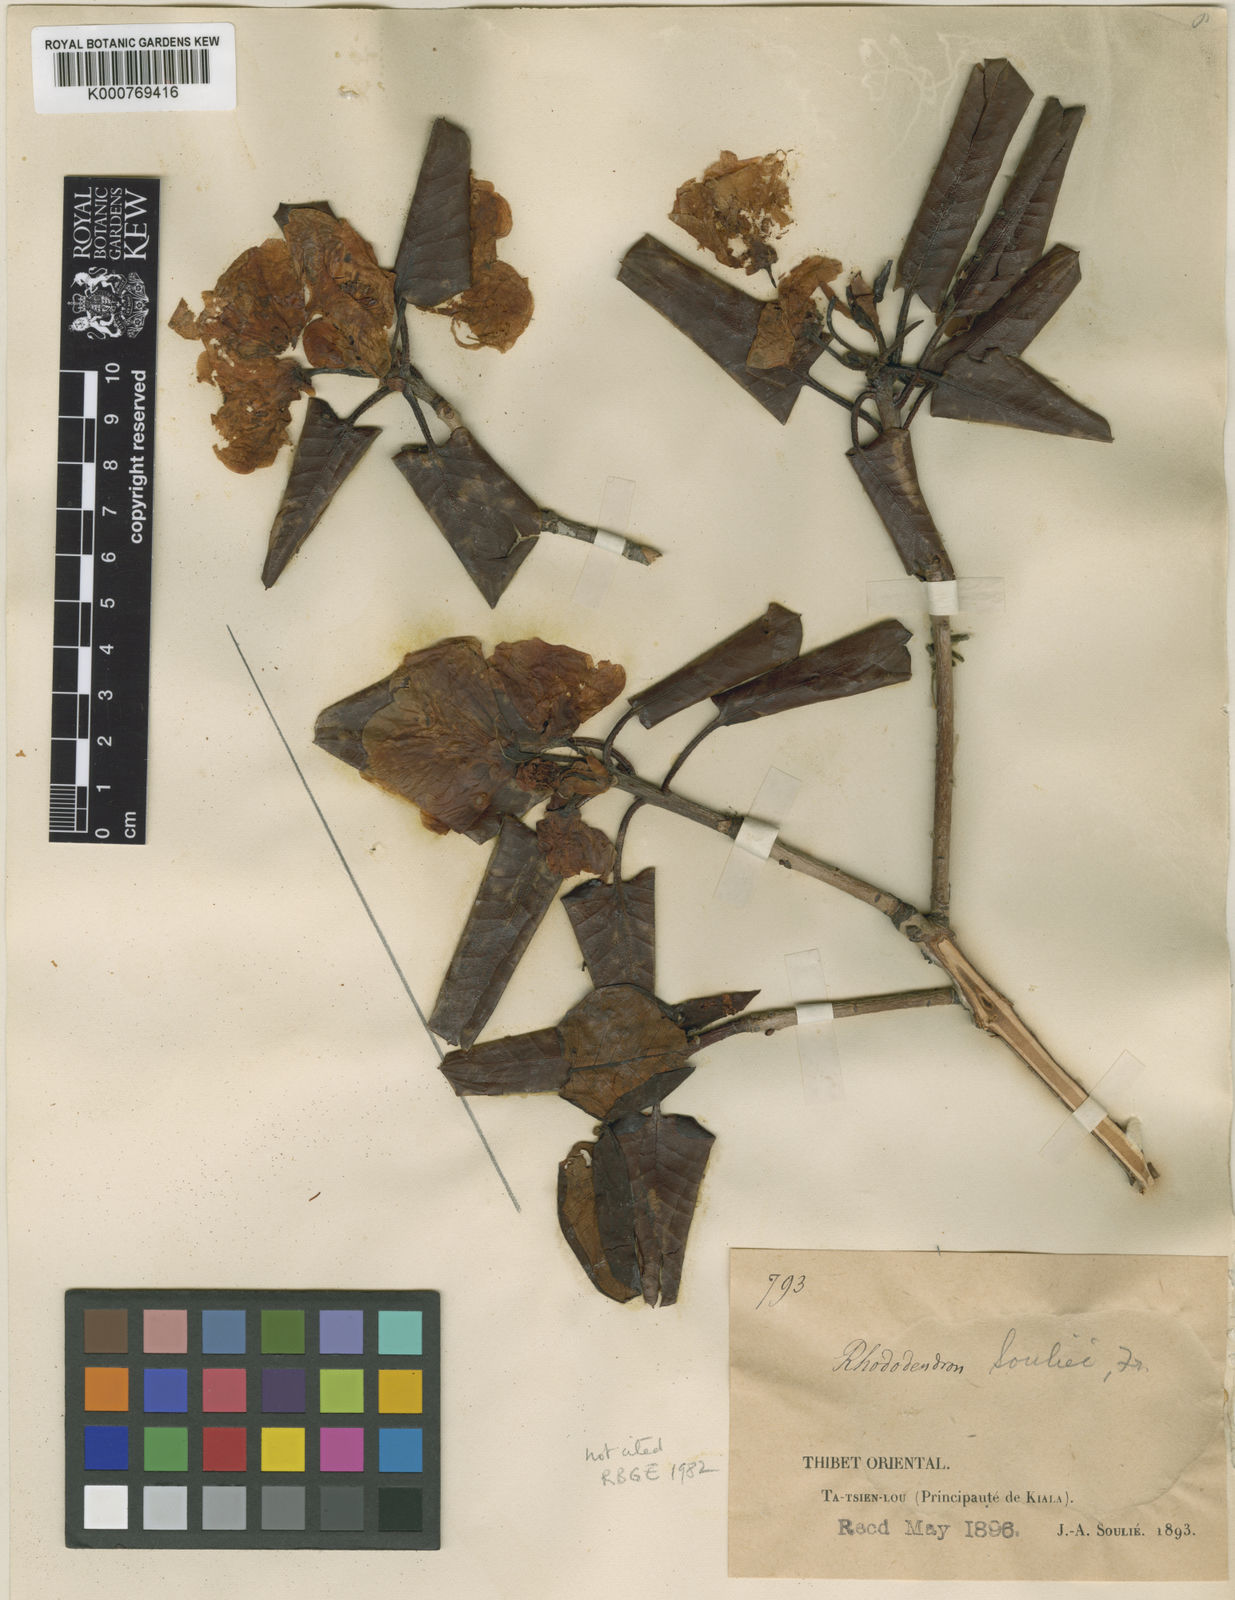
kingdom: Plantae
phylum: Tracheophyta
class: Magnoliopsida
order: Ericales
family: Ericaceae
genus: Rhododendron
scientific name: Rhododendron souliei
